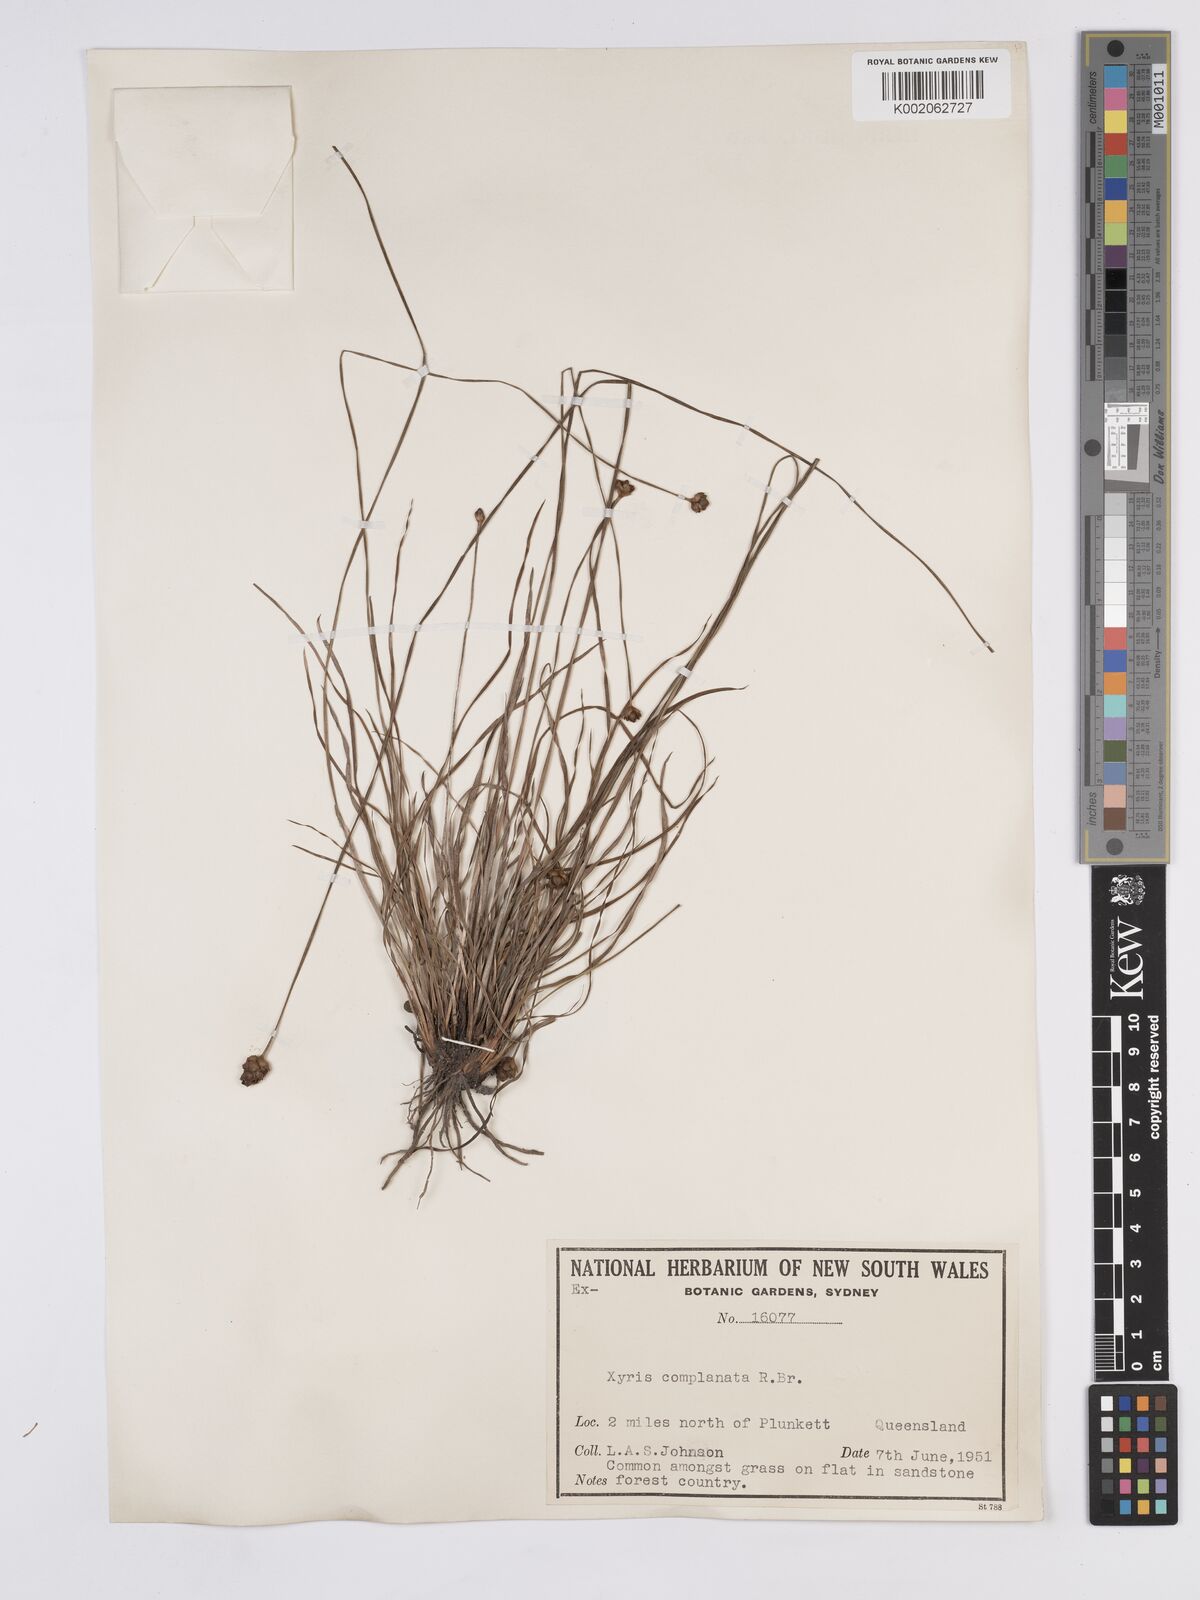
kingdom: Plantae
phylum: Tracheophyta
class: Liliopsida
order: Poales
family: Xyridaceae
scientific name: Xyridaceae
